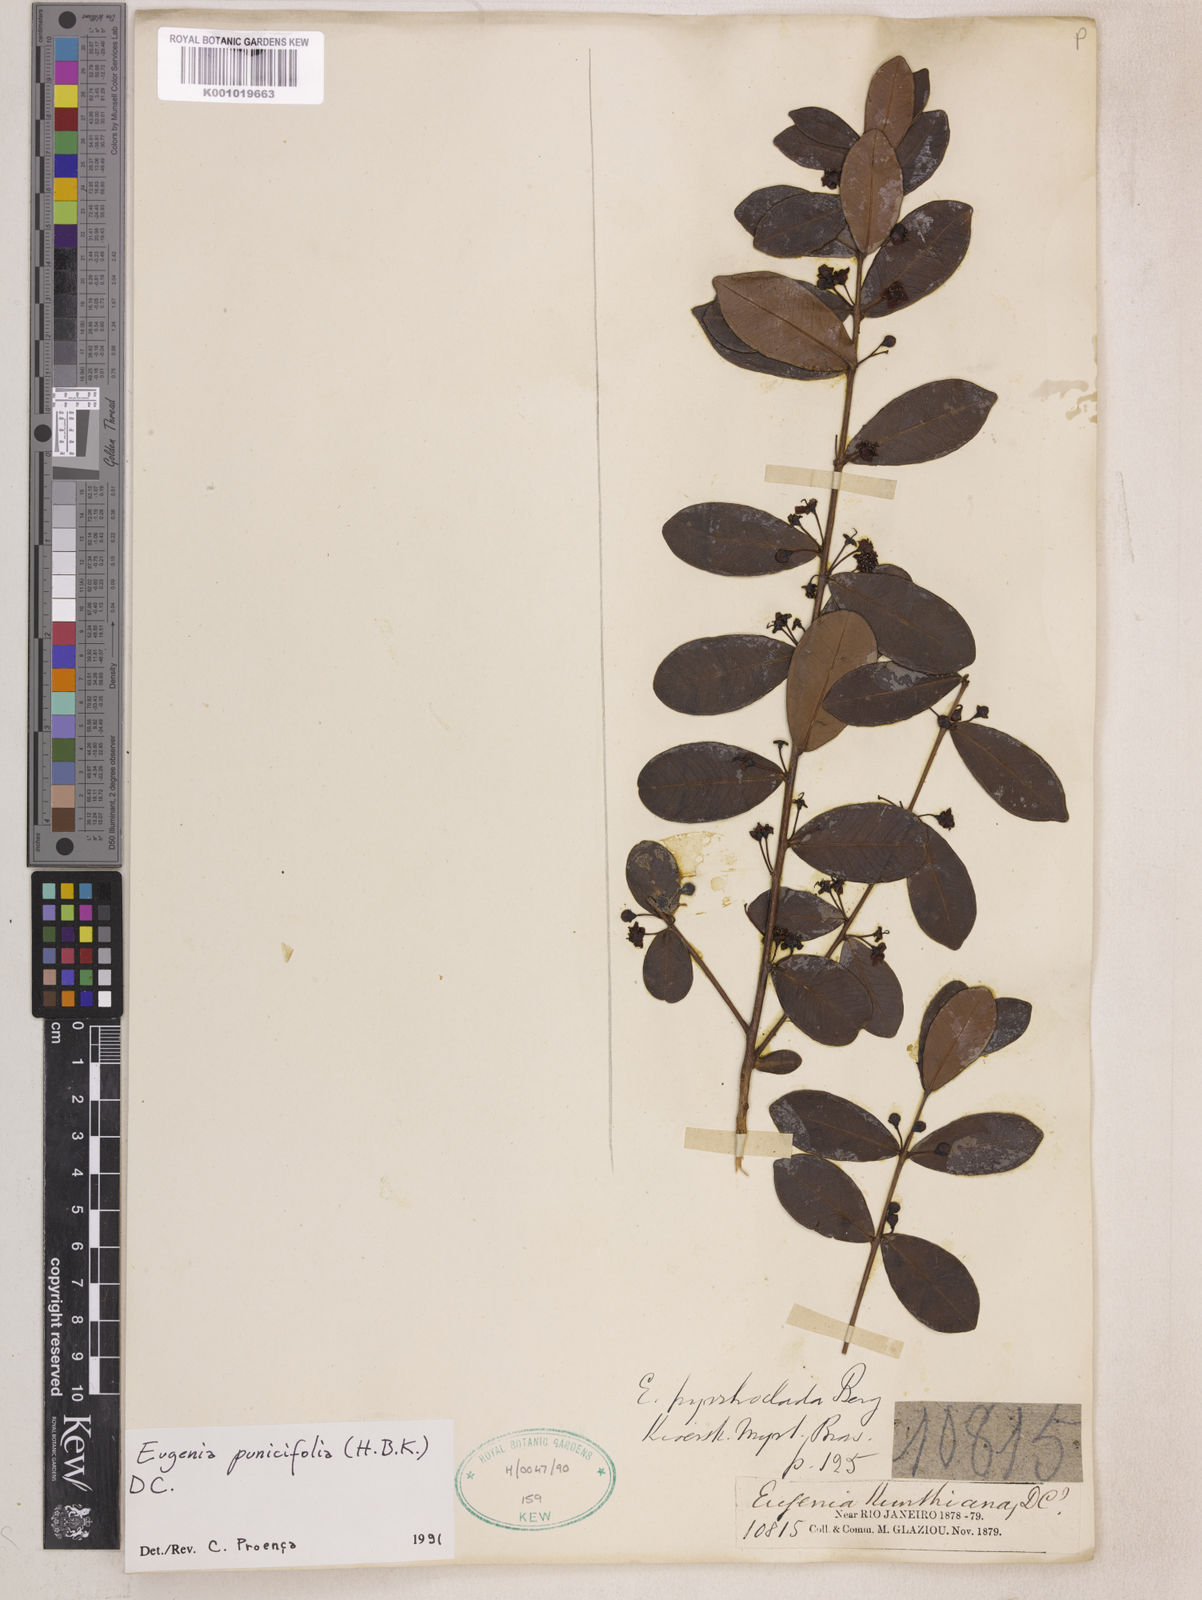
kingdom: Plantae
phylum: Tracheophyta
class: Magnoliopsida
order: Myrtales
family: Myrtaceae
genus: Eugenia
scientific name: Eugenia punicifolia
